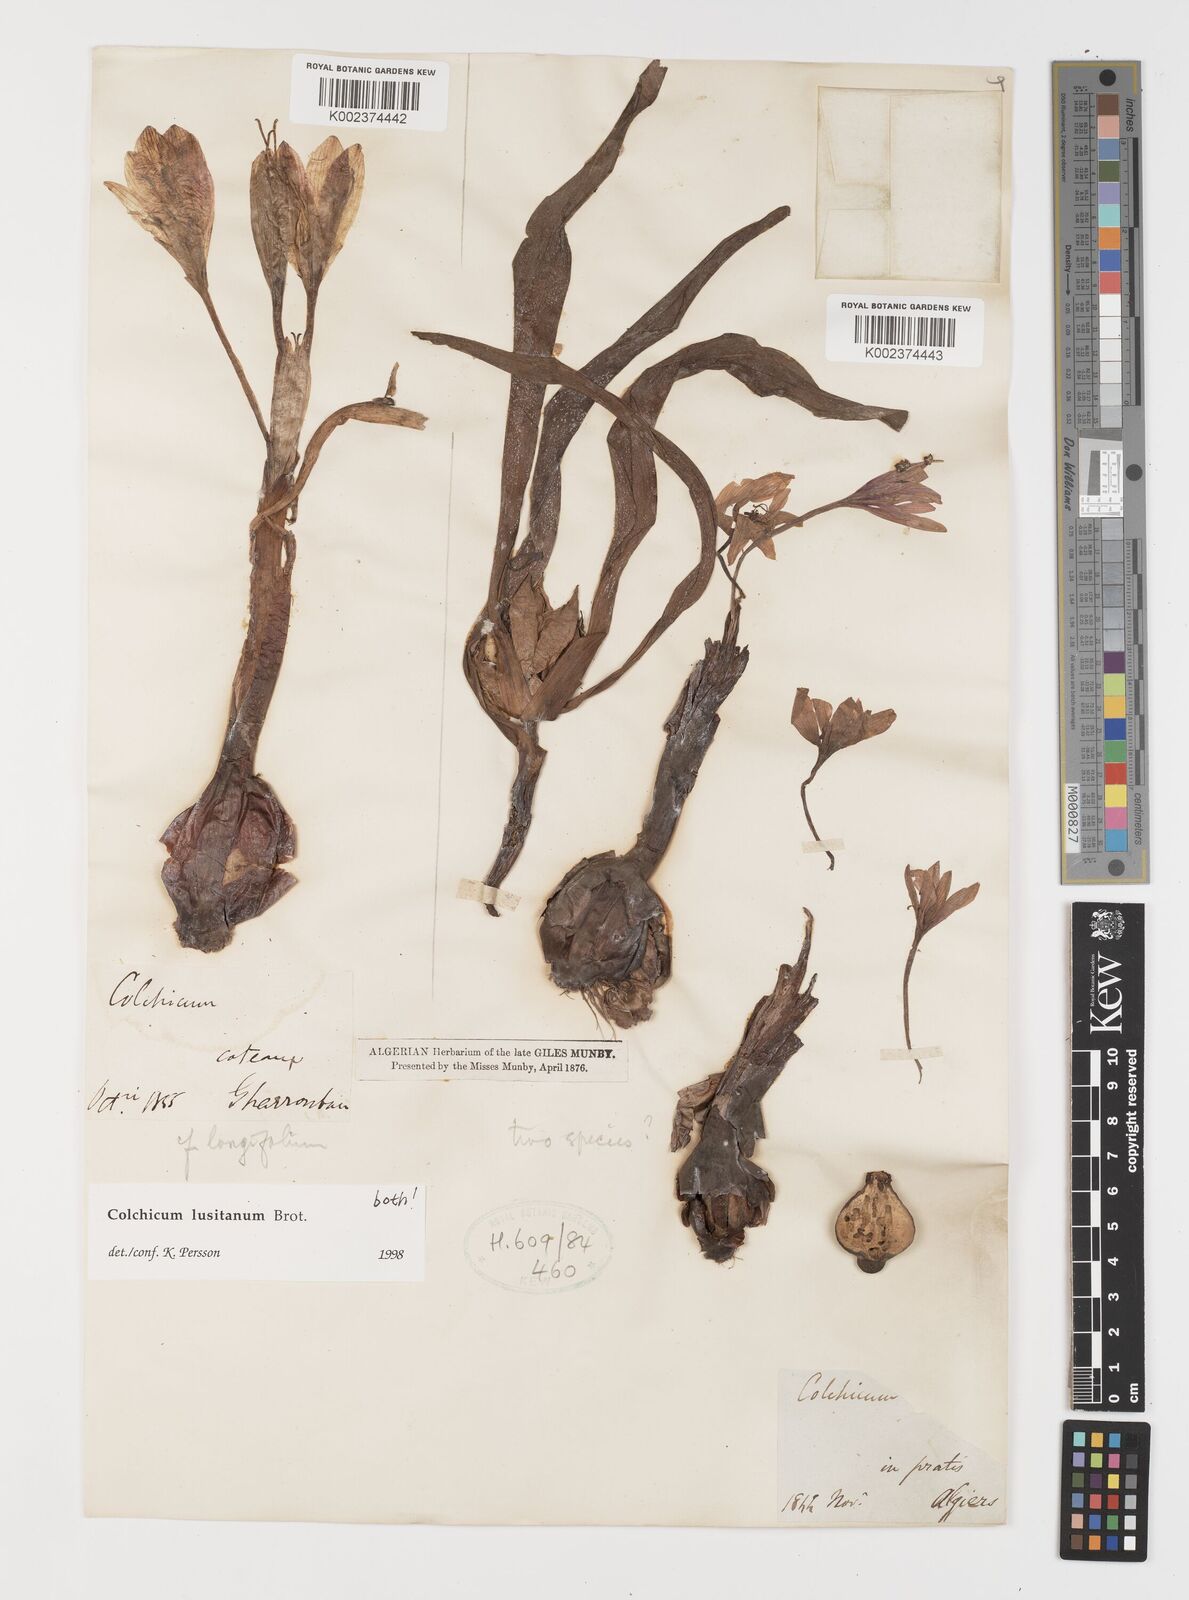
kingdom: Plantae
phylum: Tracheophyta
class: Liliopsida
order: Liliales
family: Colchicaceae
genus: Colchicum
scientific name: Colchicum lusitanum
